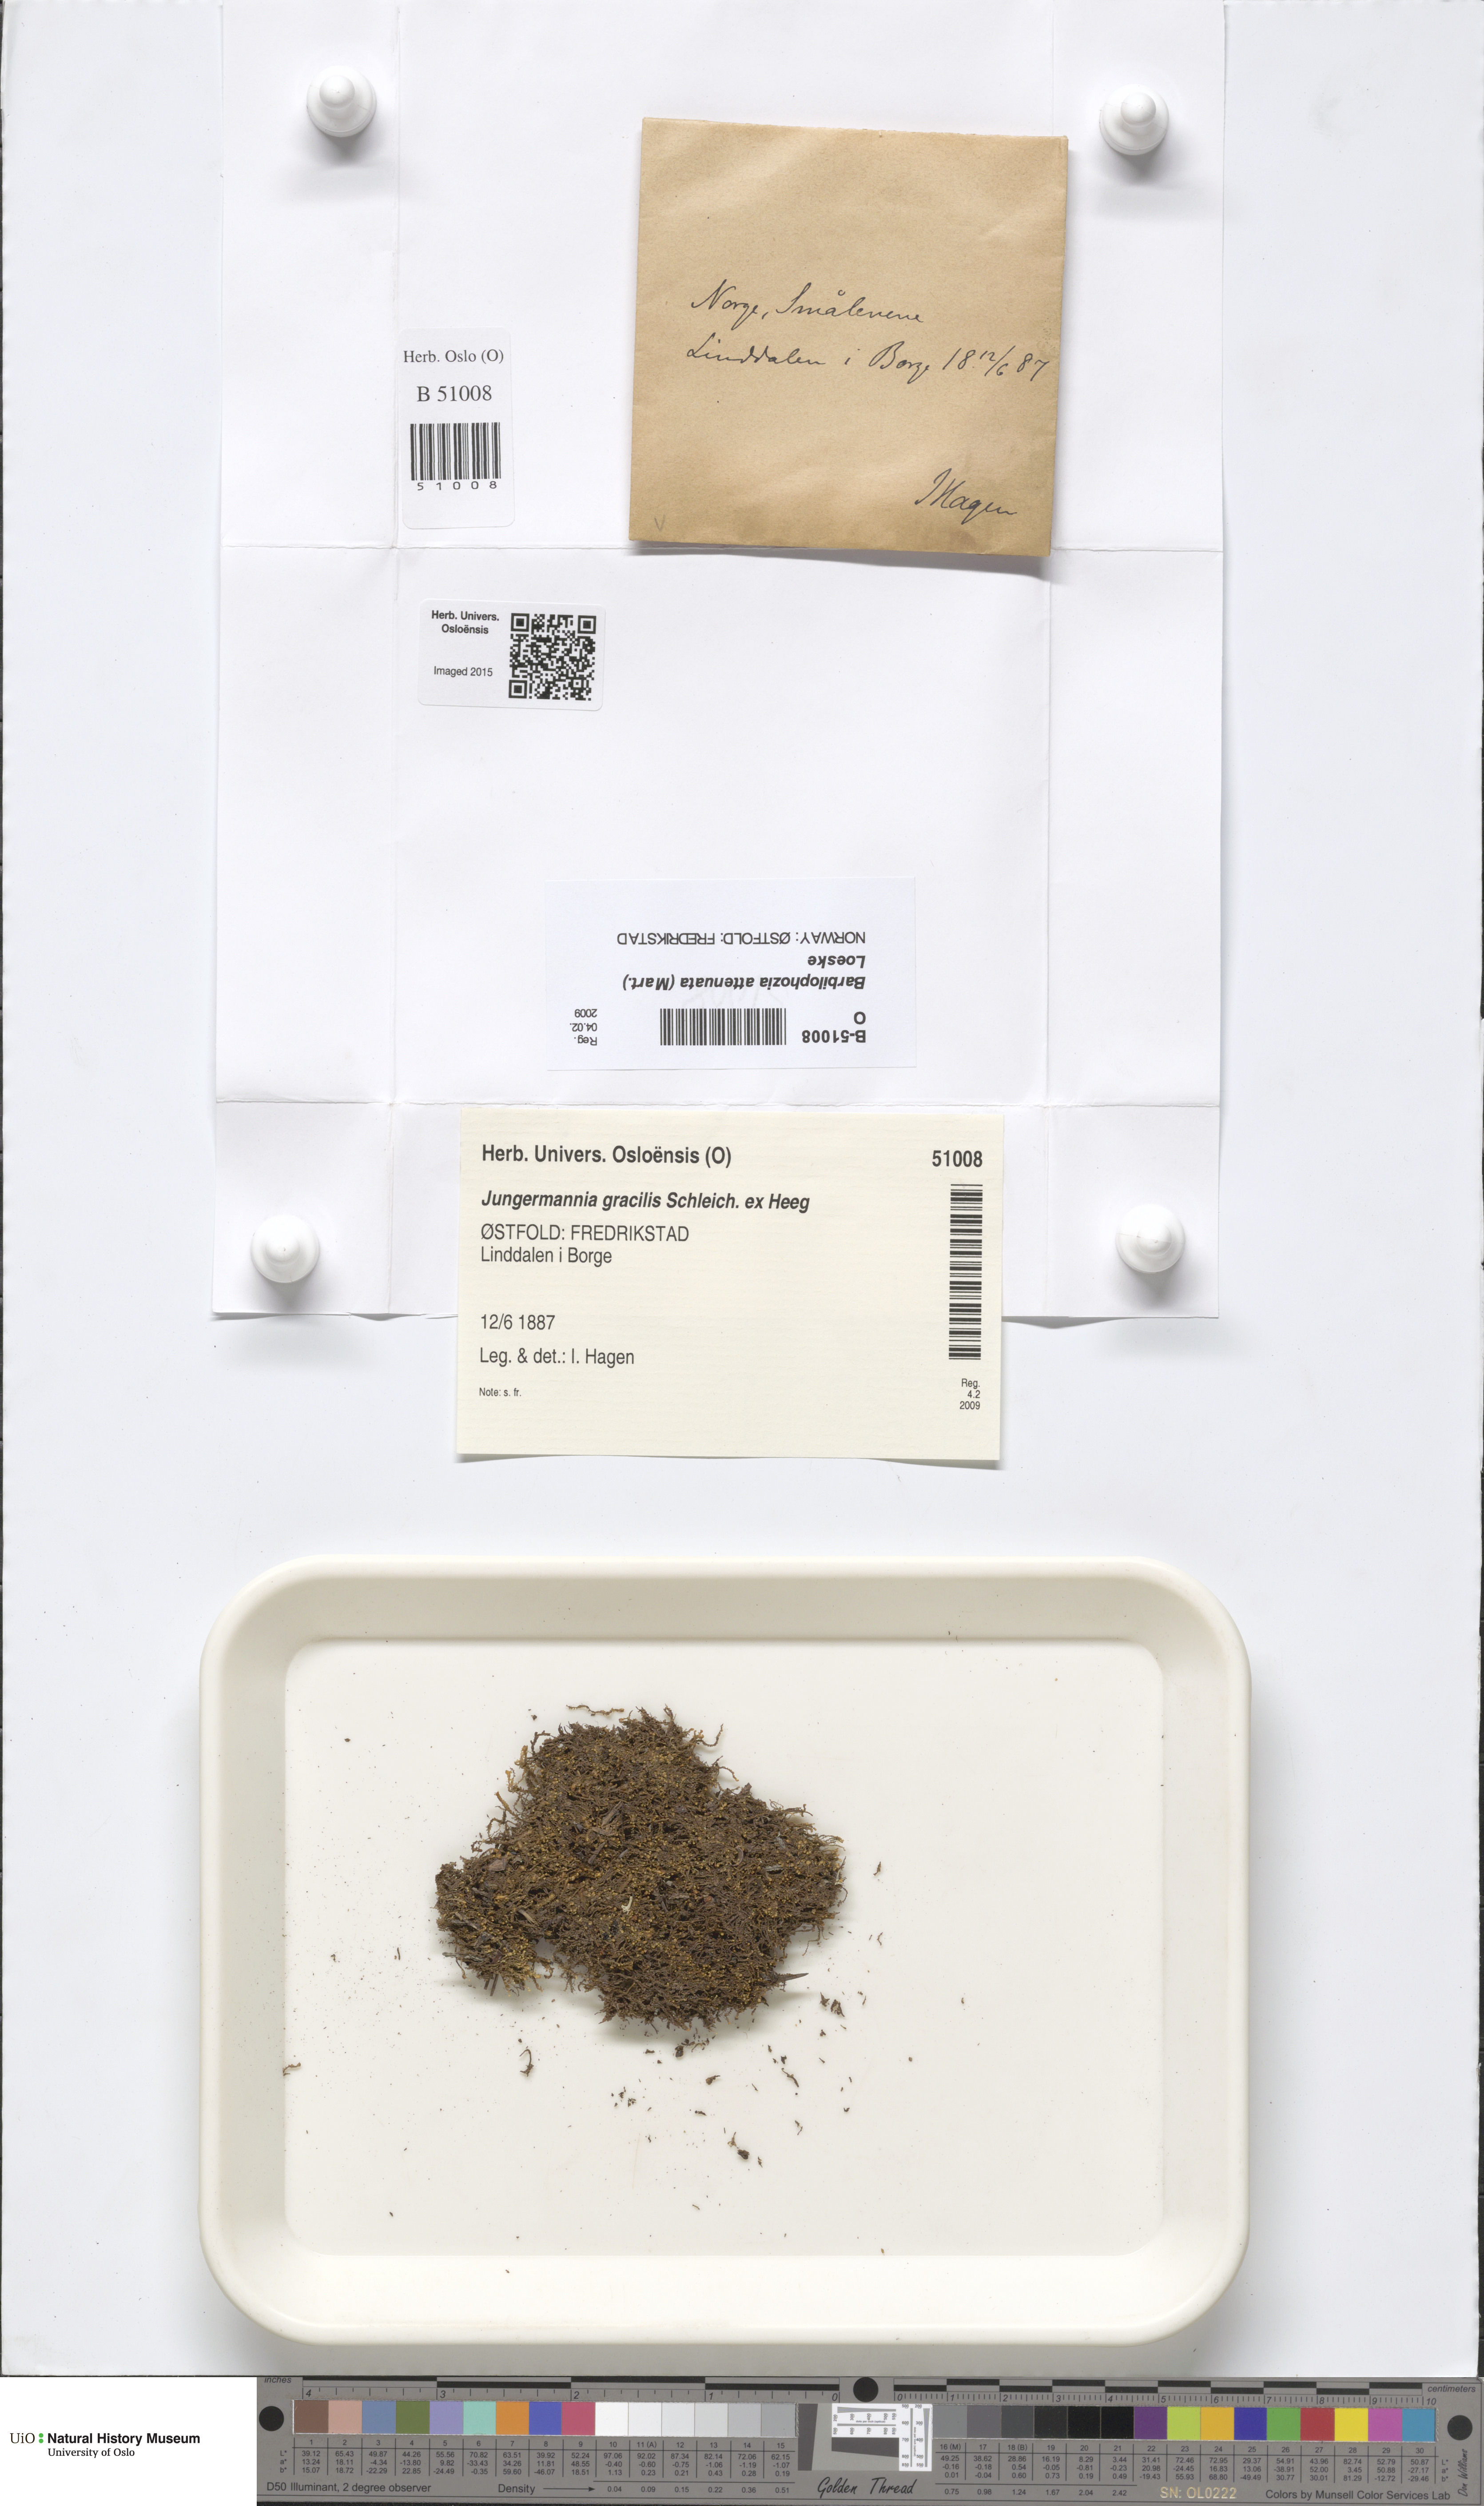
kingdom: Plantae
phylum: Marchantiophyta
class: Jungermanniopsida
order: Jungermanniales
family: Anastrophyllaceae
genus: Neoorthocaulis
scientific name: Neoorthocaulis attenuatus
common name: Trunk pawwort
